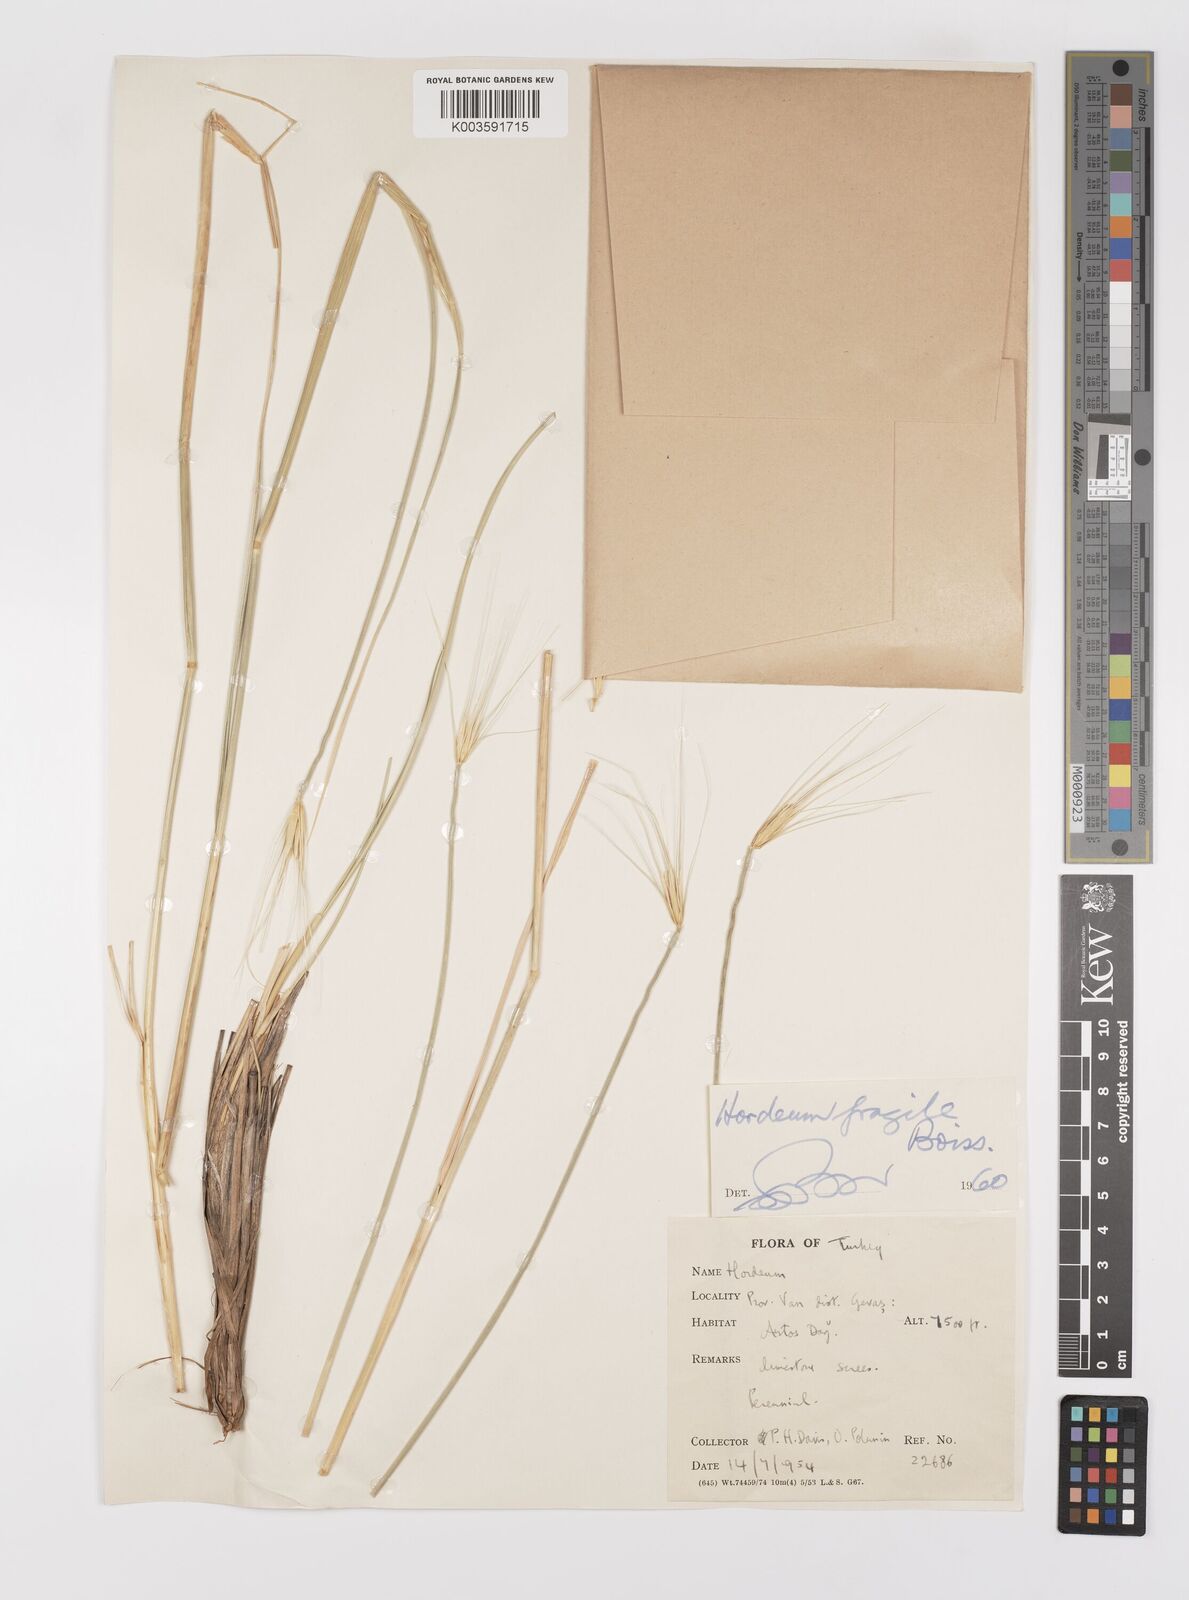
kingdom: Plantae
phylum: Tracheophyta
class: Liliopsida
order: Poales
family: Poaceae
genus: Psathyrostachys
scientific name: Psathyrostachys fragilis
